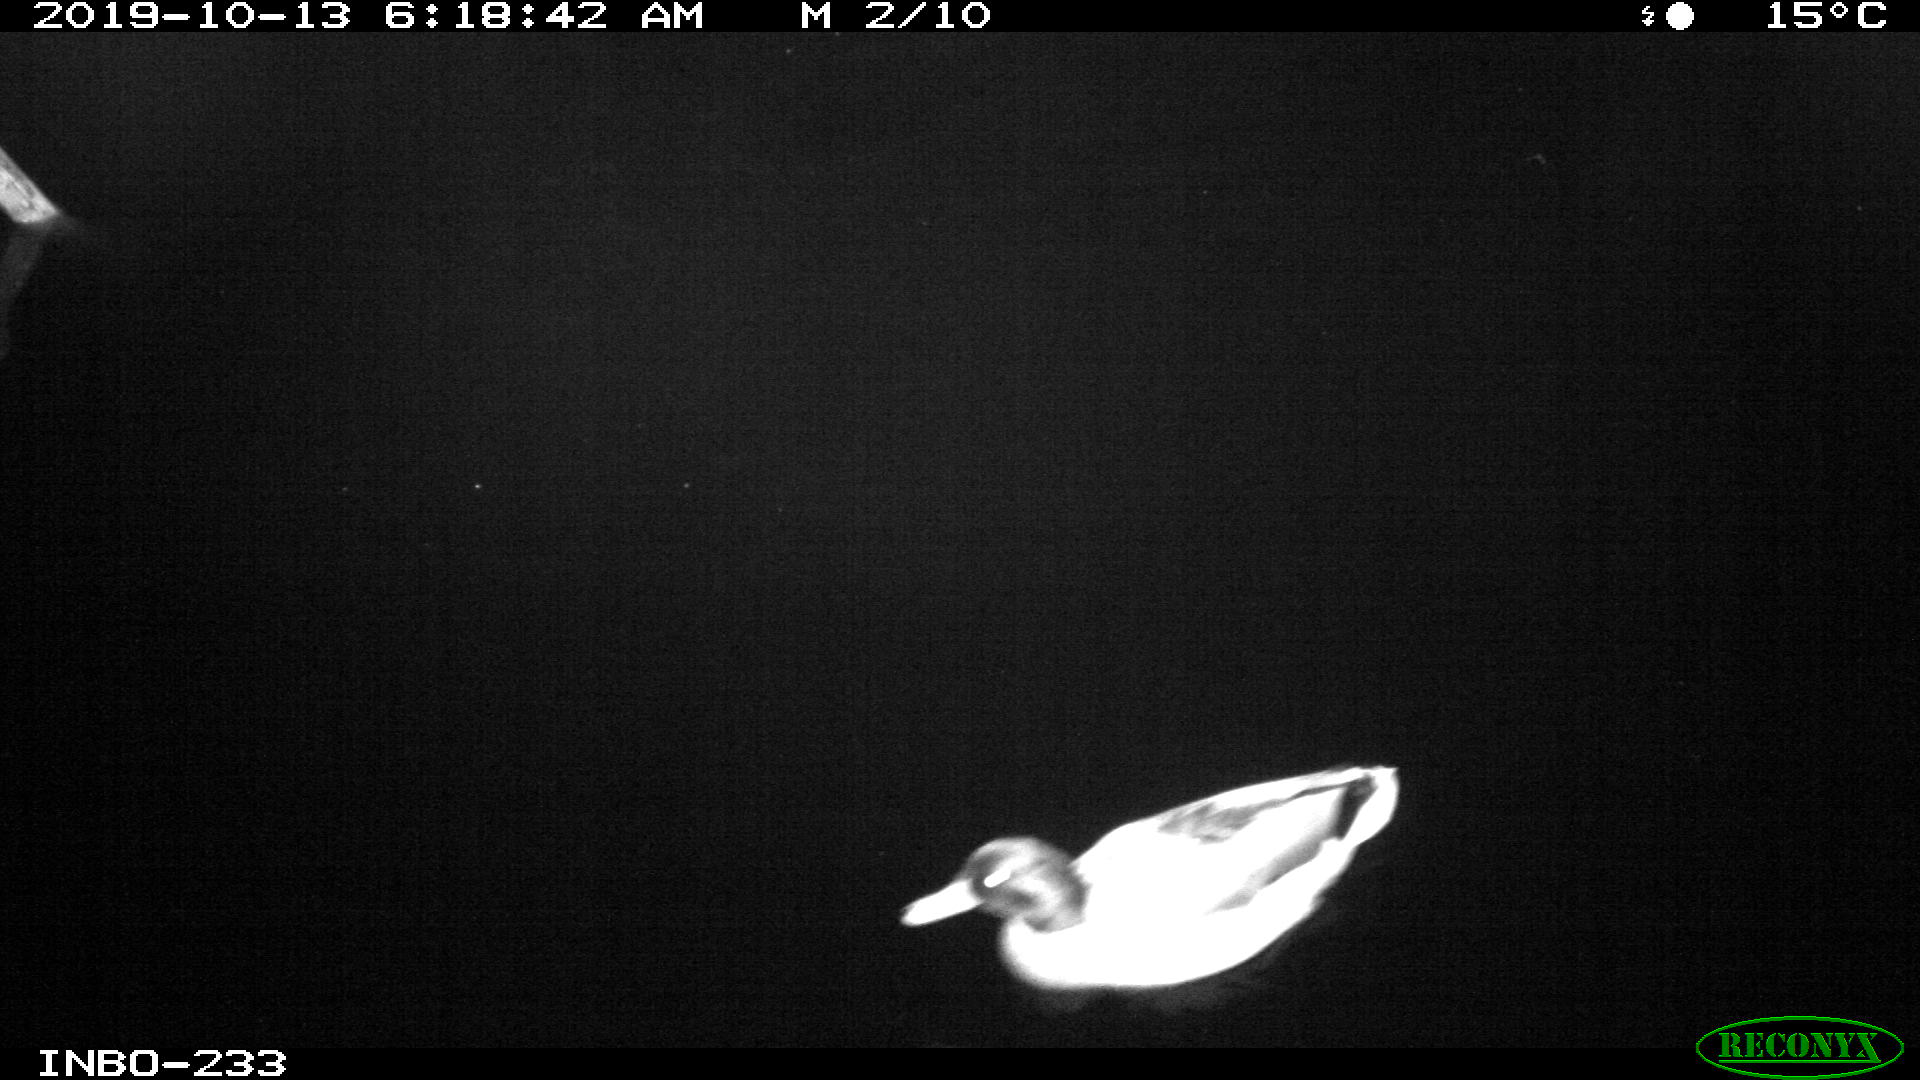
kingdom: Animalia
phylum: Chordata
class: Aves
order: Anseriformes
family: Anatidae
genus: Anas
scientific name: Anas platyrhynchos
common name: Mallard
